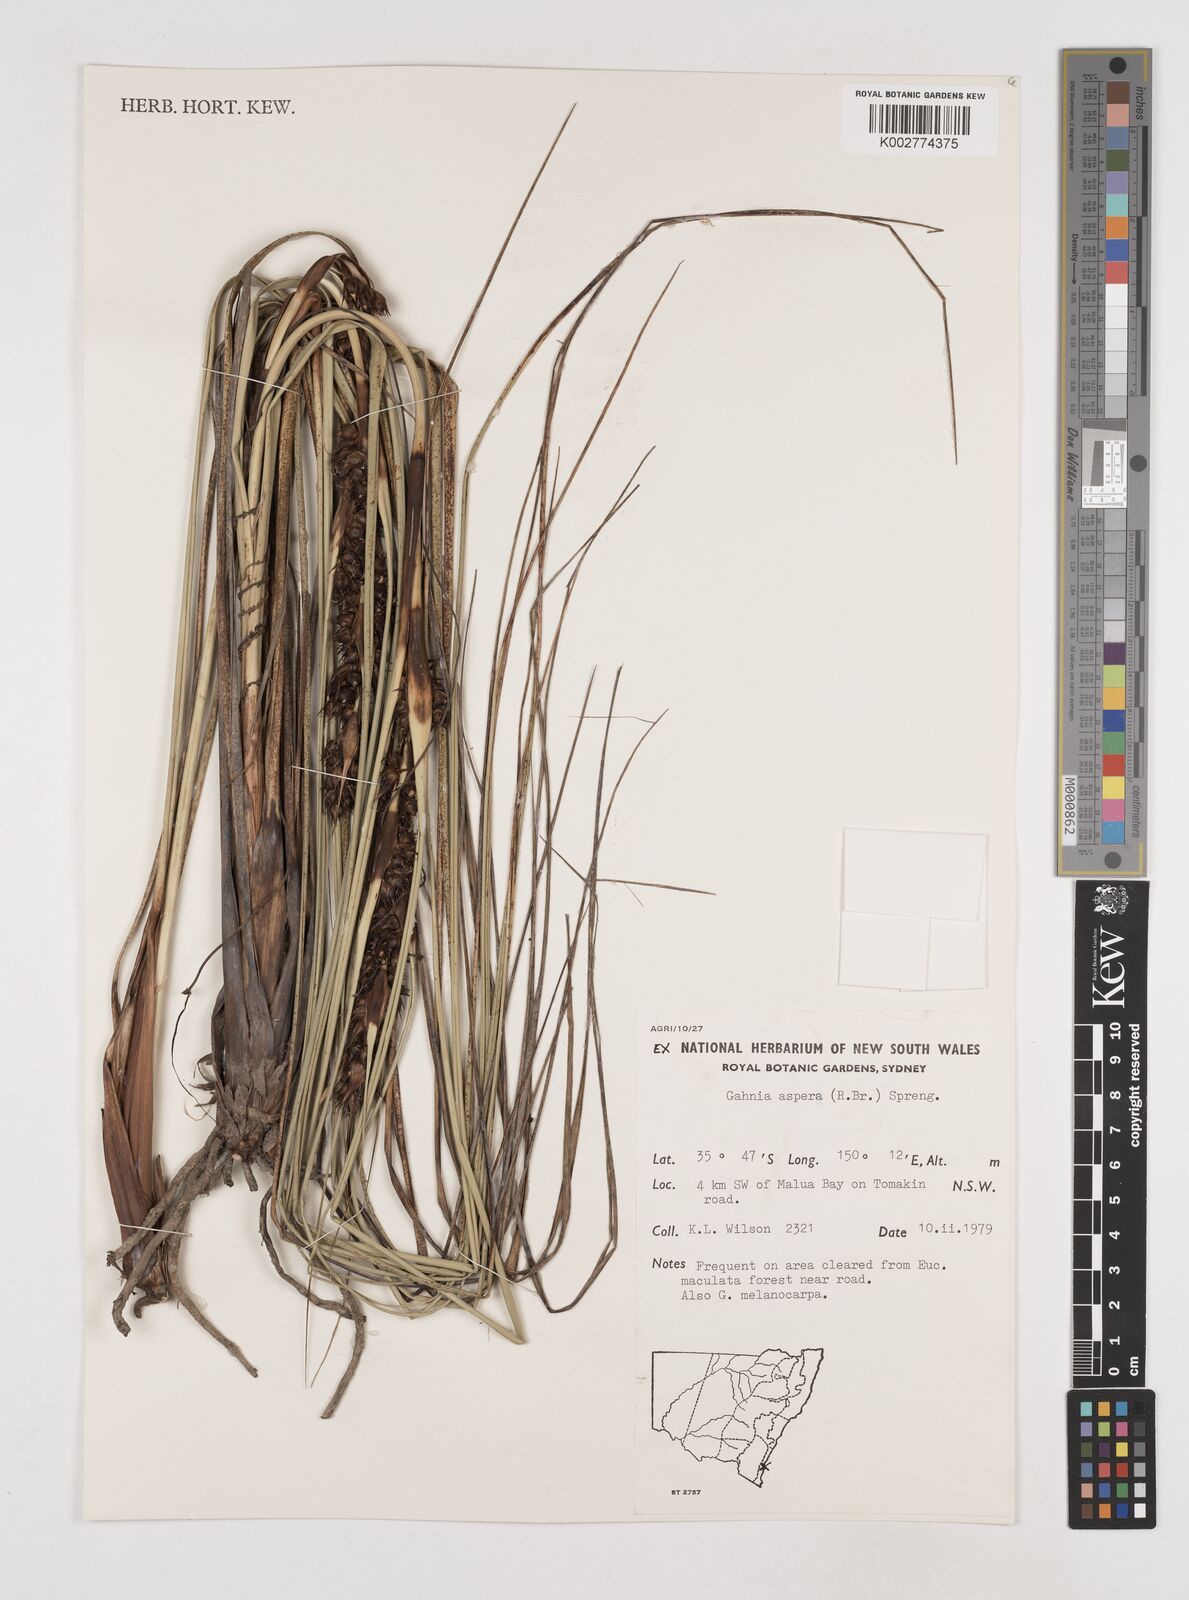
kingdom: Plantae
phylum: Tracheophyta
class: Liliopsida
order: Poales
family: Cyperaceae
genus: Gahnia
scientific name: Gahnia aspera
